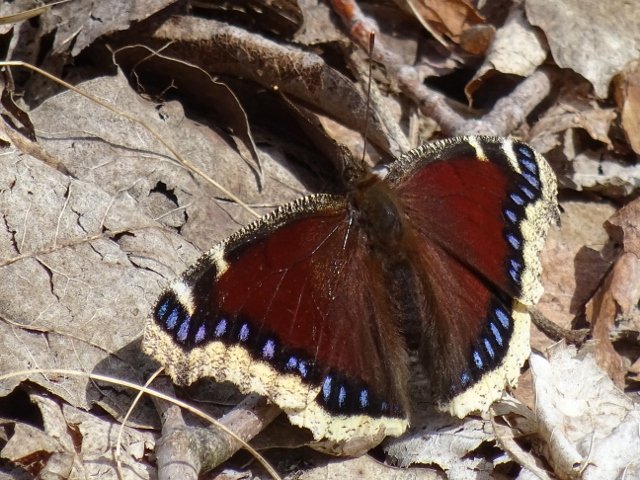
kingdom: Animalia
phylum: Arthropoda
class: Insecta
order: Lepidoptera
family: Nymphalidae
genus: Nymphalis
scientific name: Nymphalis antiopa
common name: Mourning Cloak
